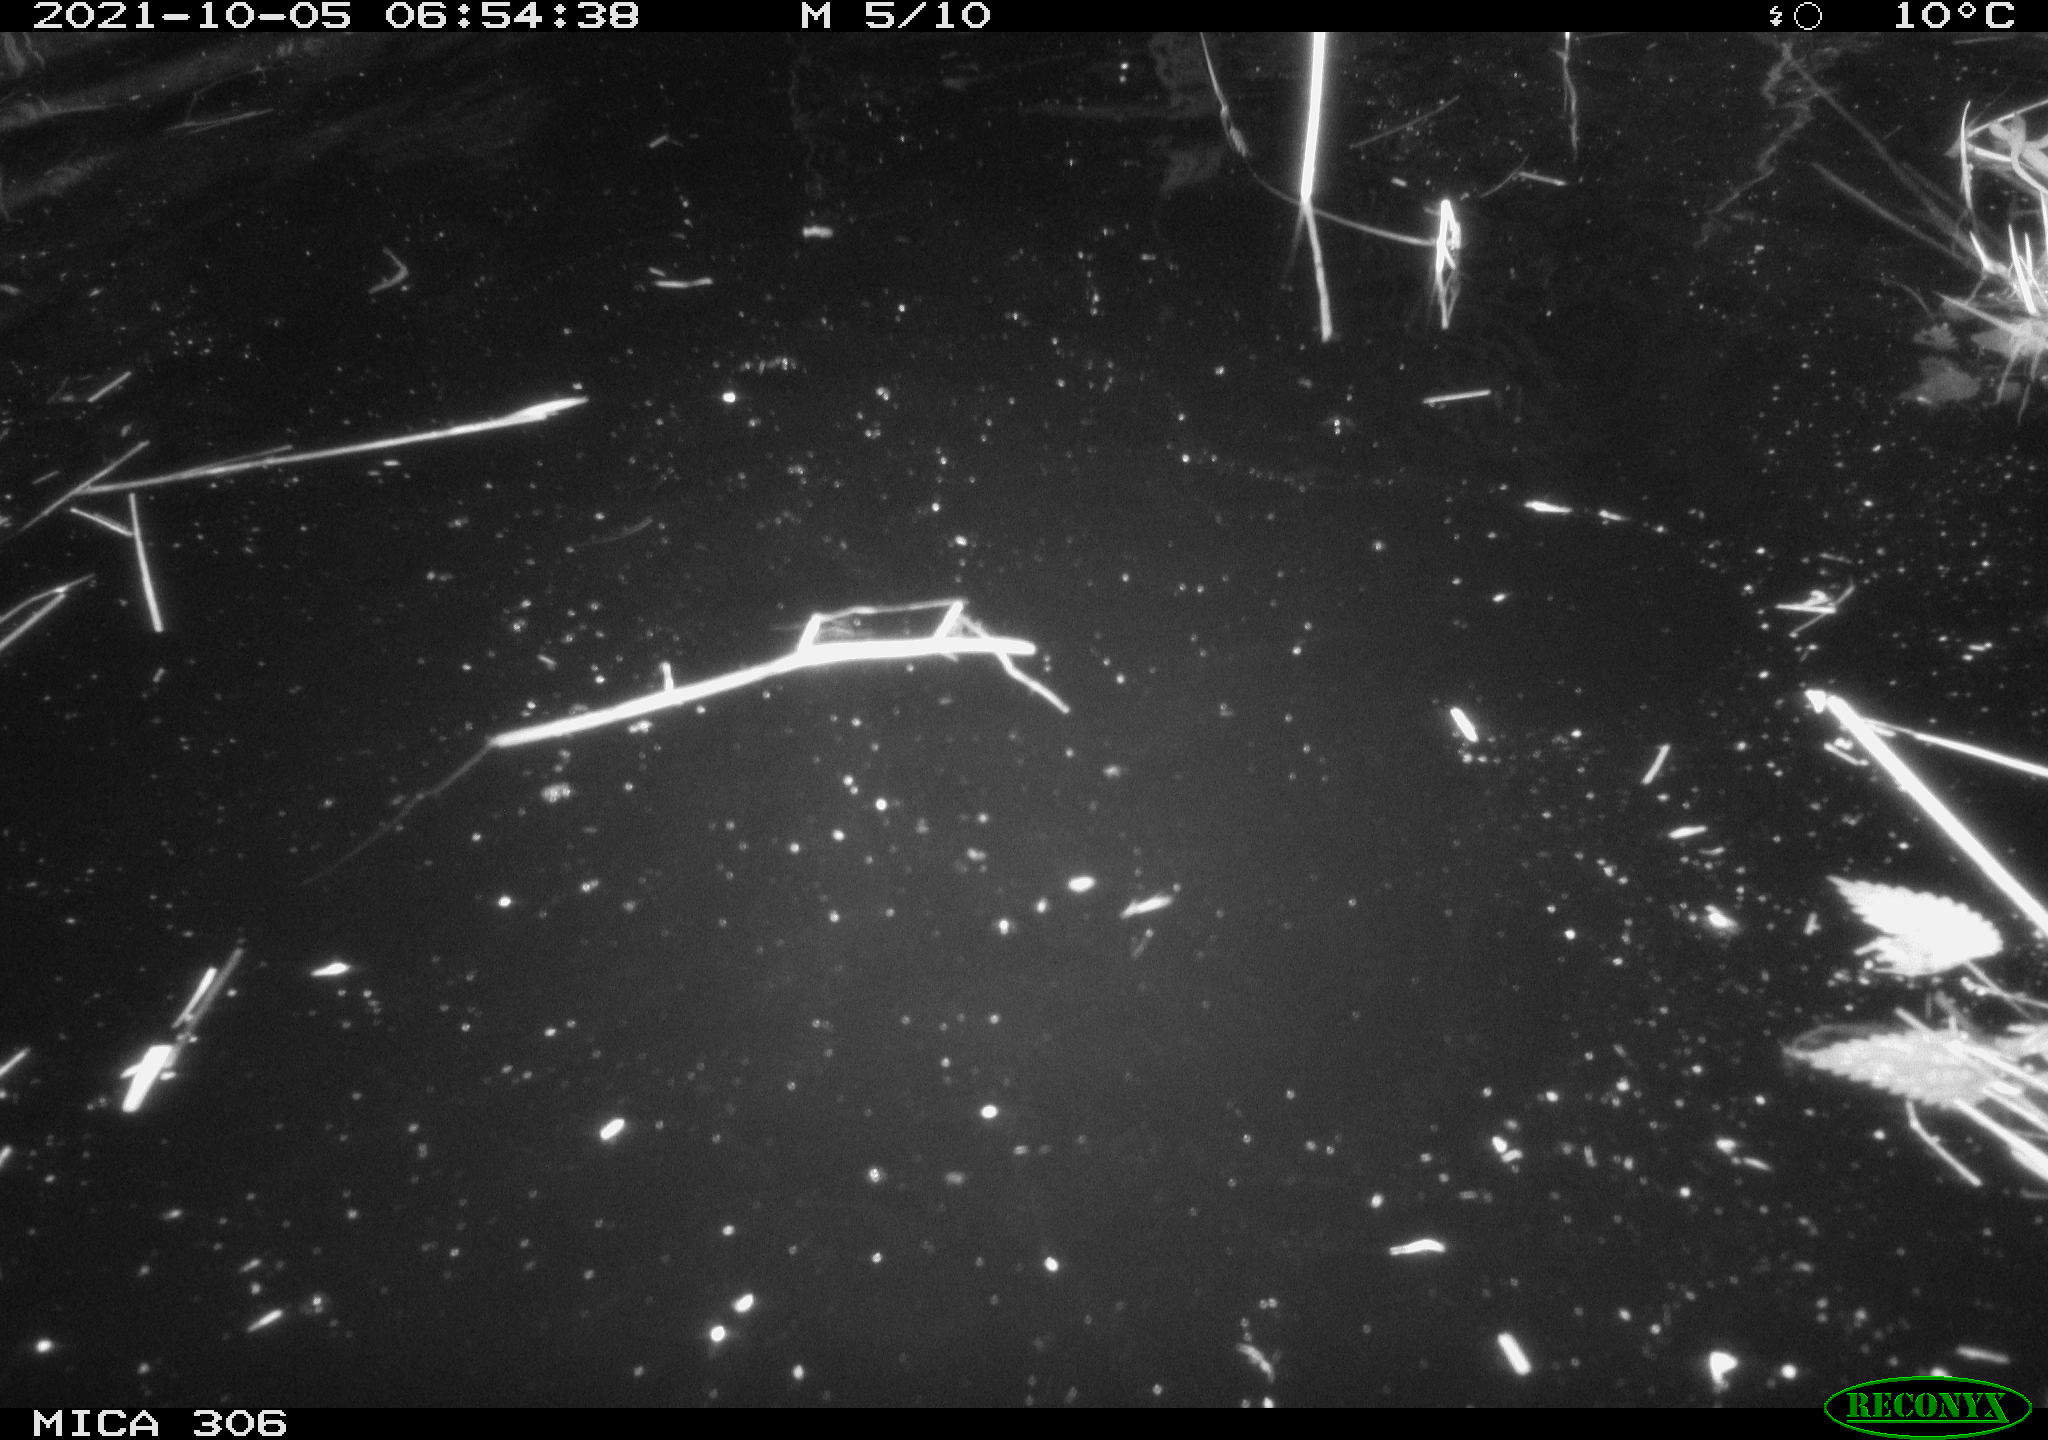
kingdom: Animalia
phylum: Chordata
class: Mammalia
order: Rodentia
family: Cricetidae
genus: Ondatra
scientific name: Ondatra zibethicus
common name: Muskrat
